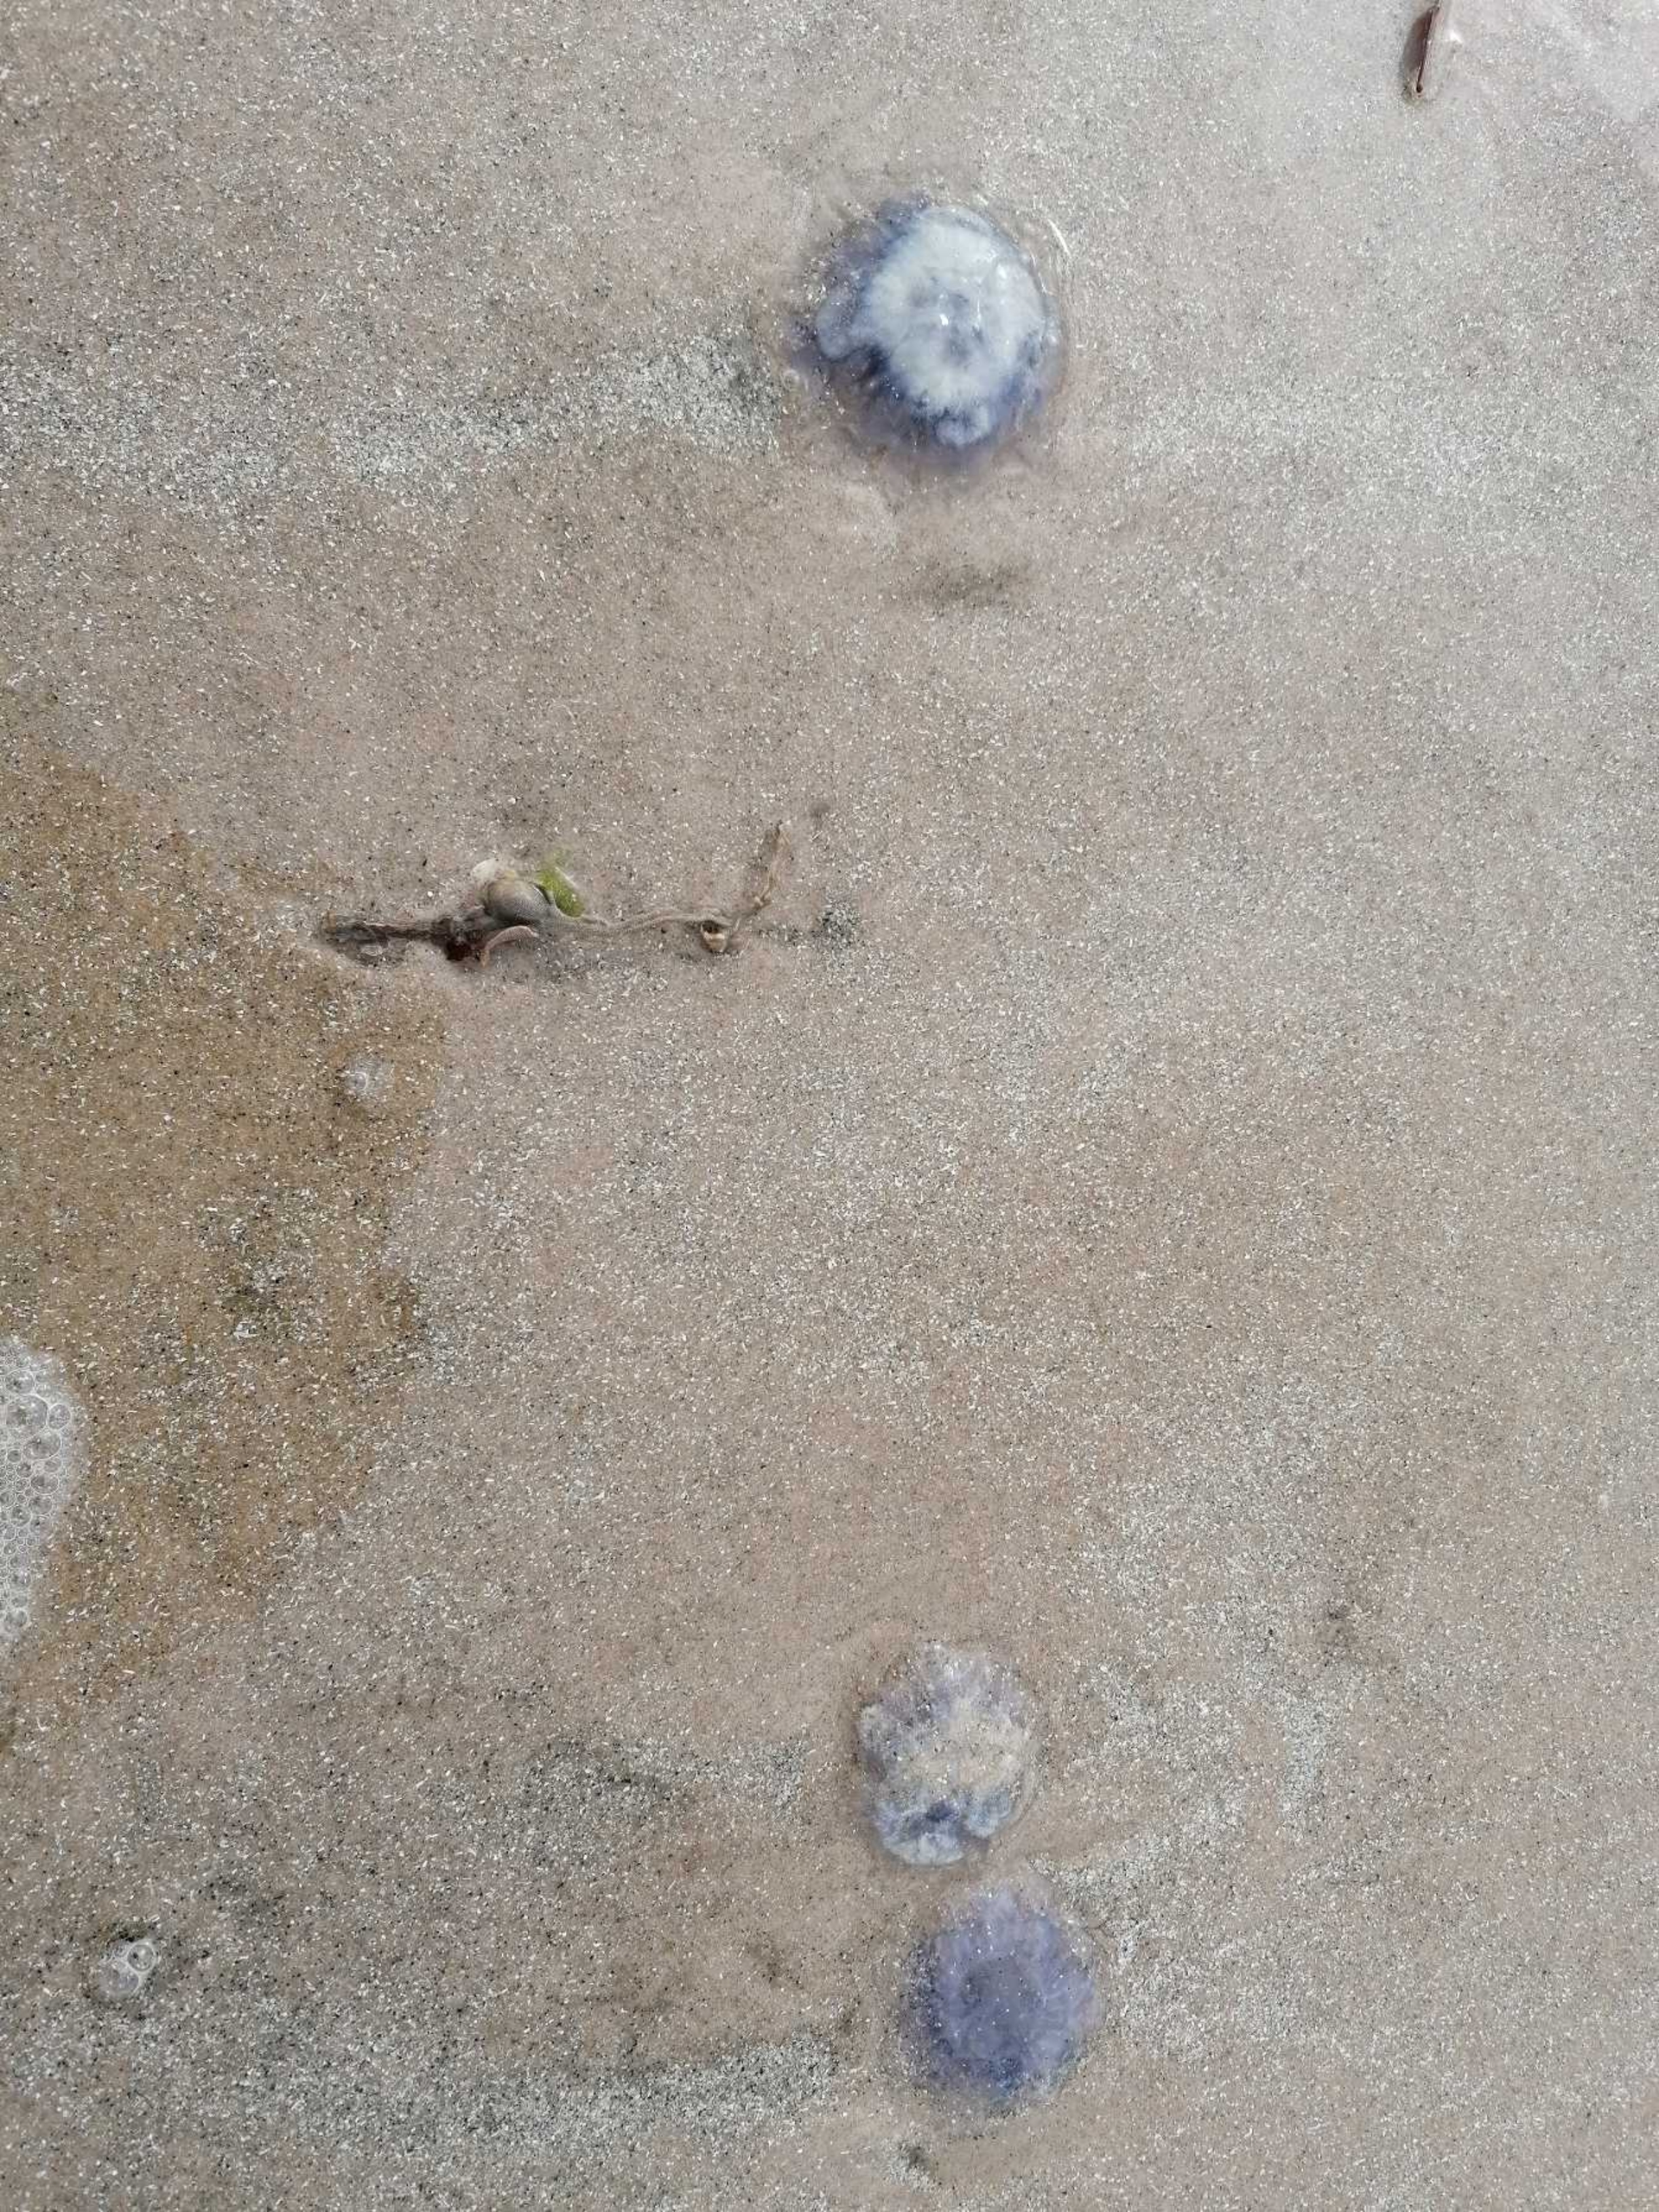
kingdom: Animalia
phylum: Cnidaria
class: Scyphozoa
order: Semaeostomeae
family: Cyaneidae
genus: Cyanea
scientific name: Cyanea lamarckii
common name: Blå brandmand
